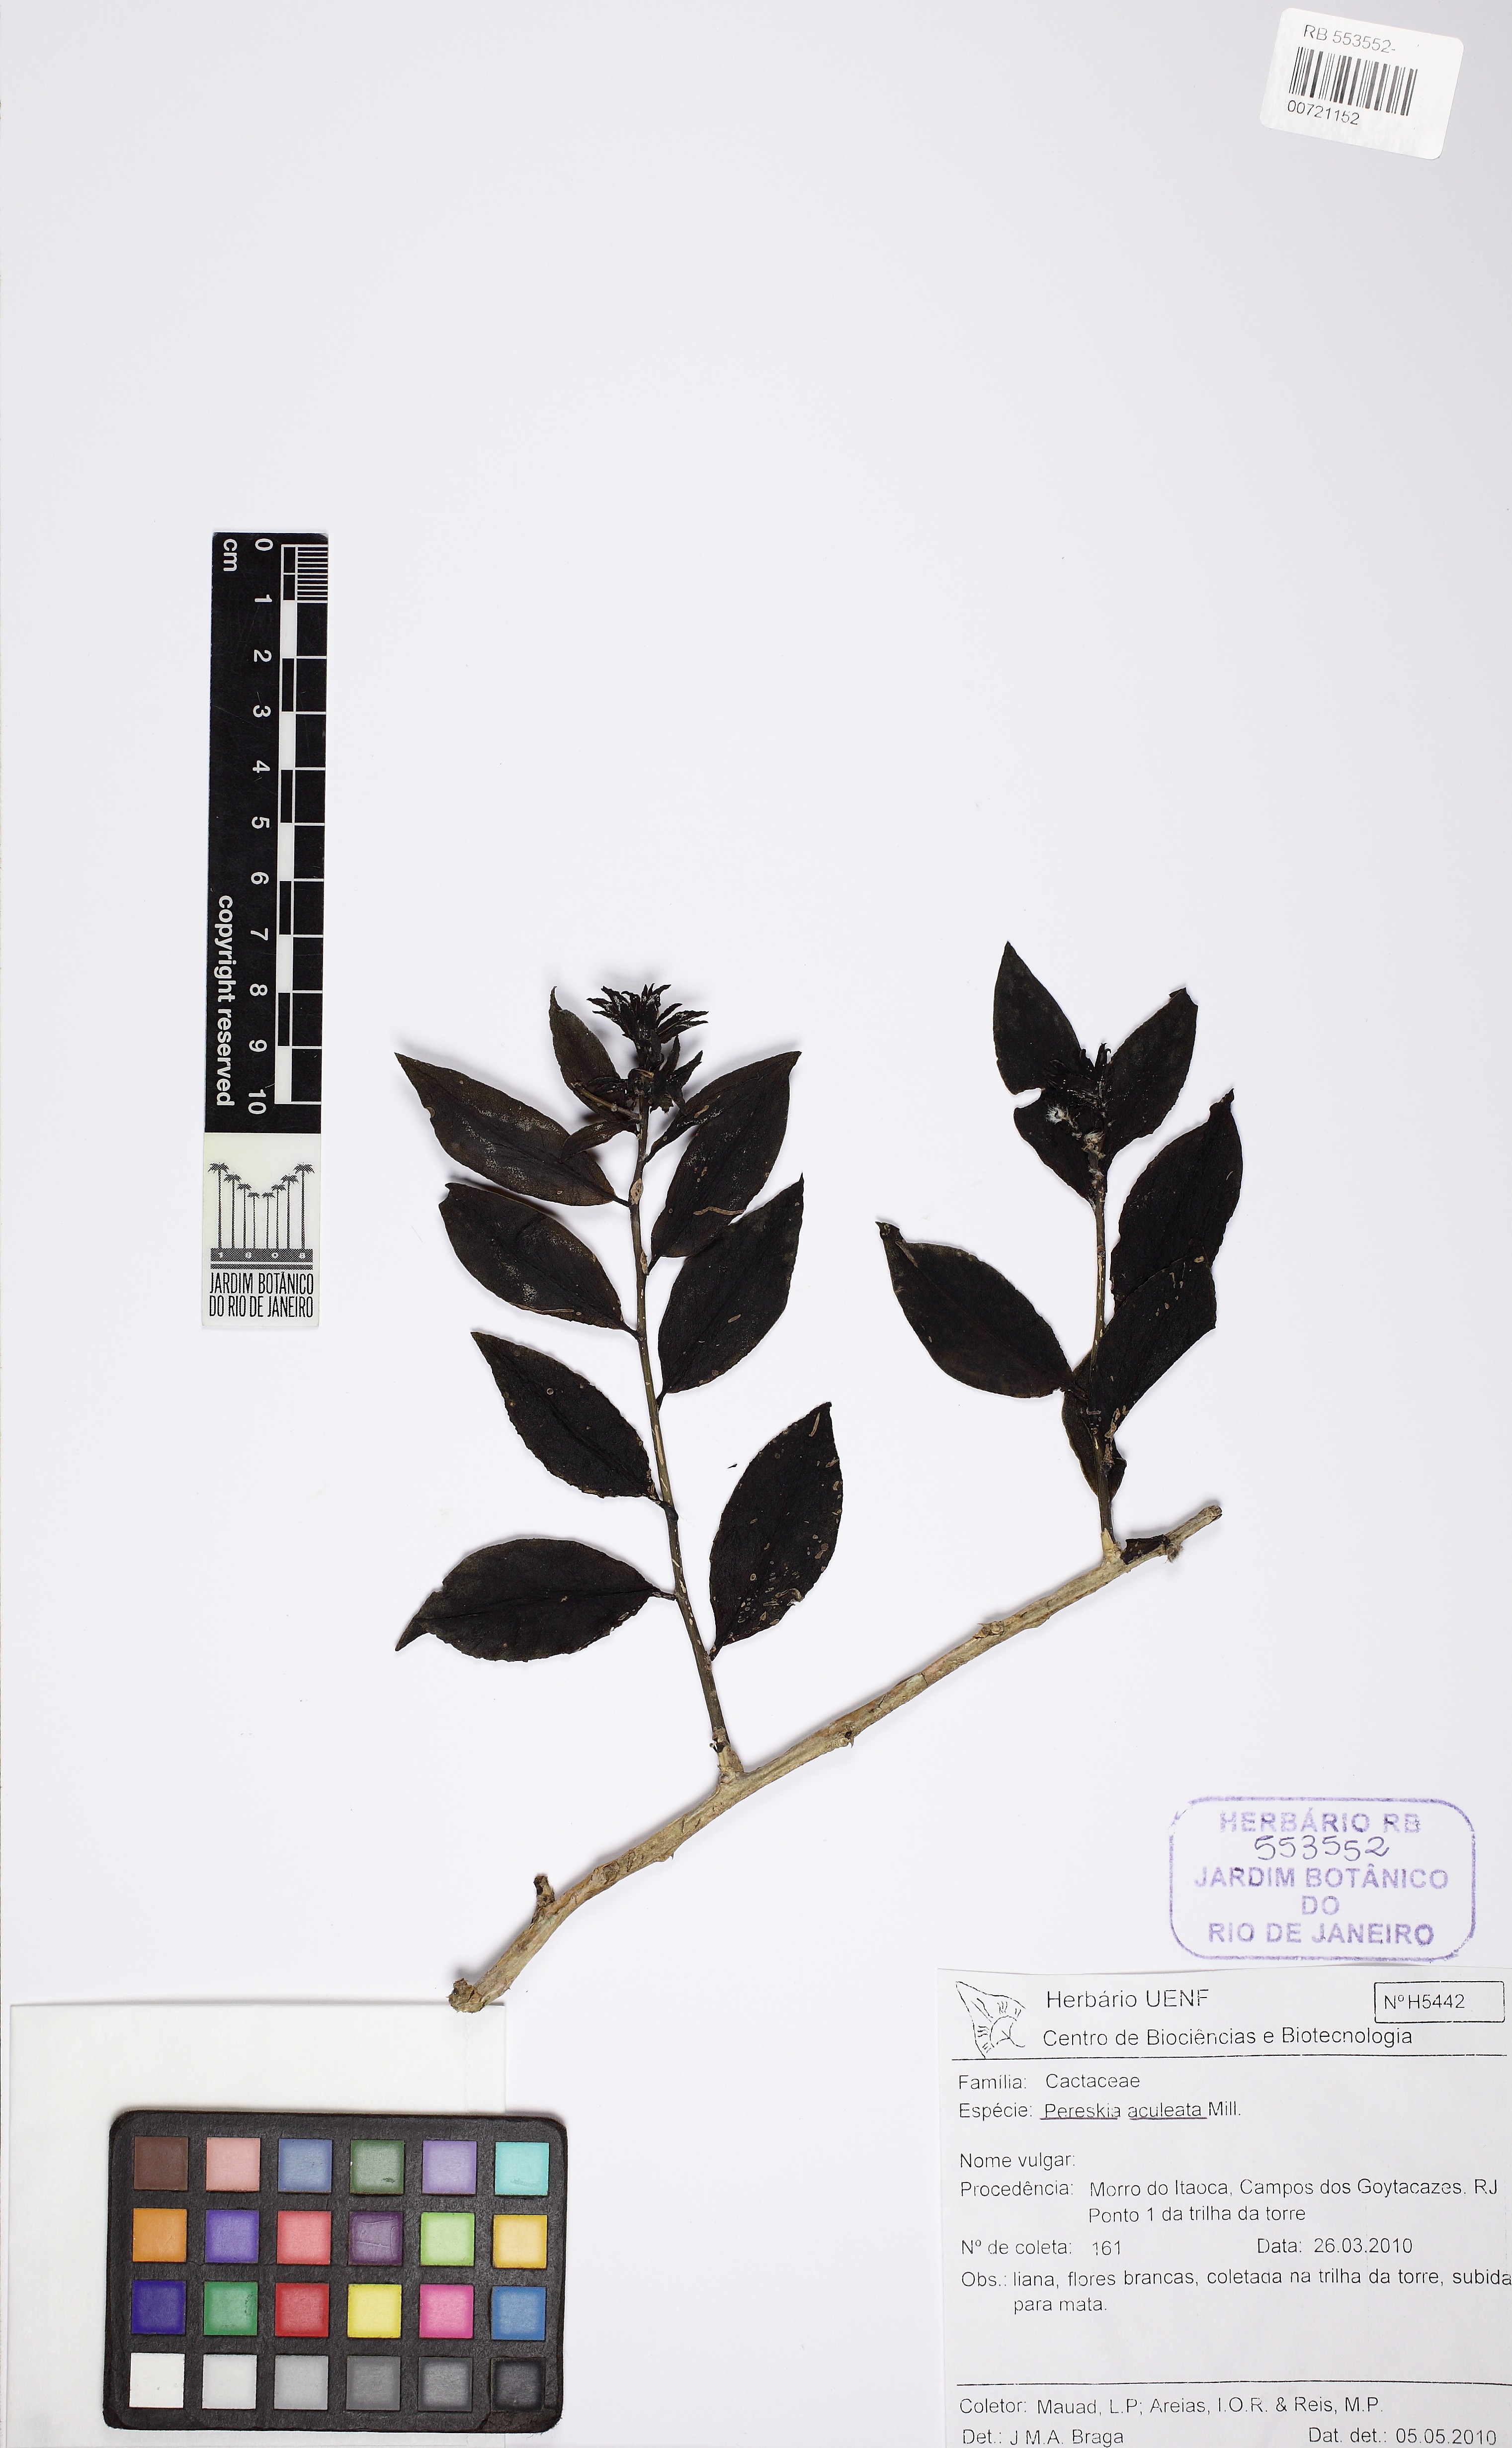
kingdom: Plantae
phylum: Tracheophyta
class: Magnoliopsida
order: Caryophyllales
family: Cactaceae
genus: Pereskia
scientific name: Pereskia aculeata
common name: Barbados gooseberry
